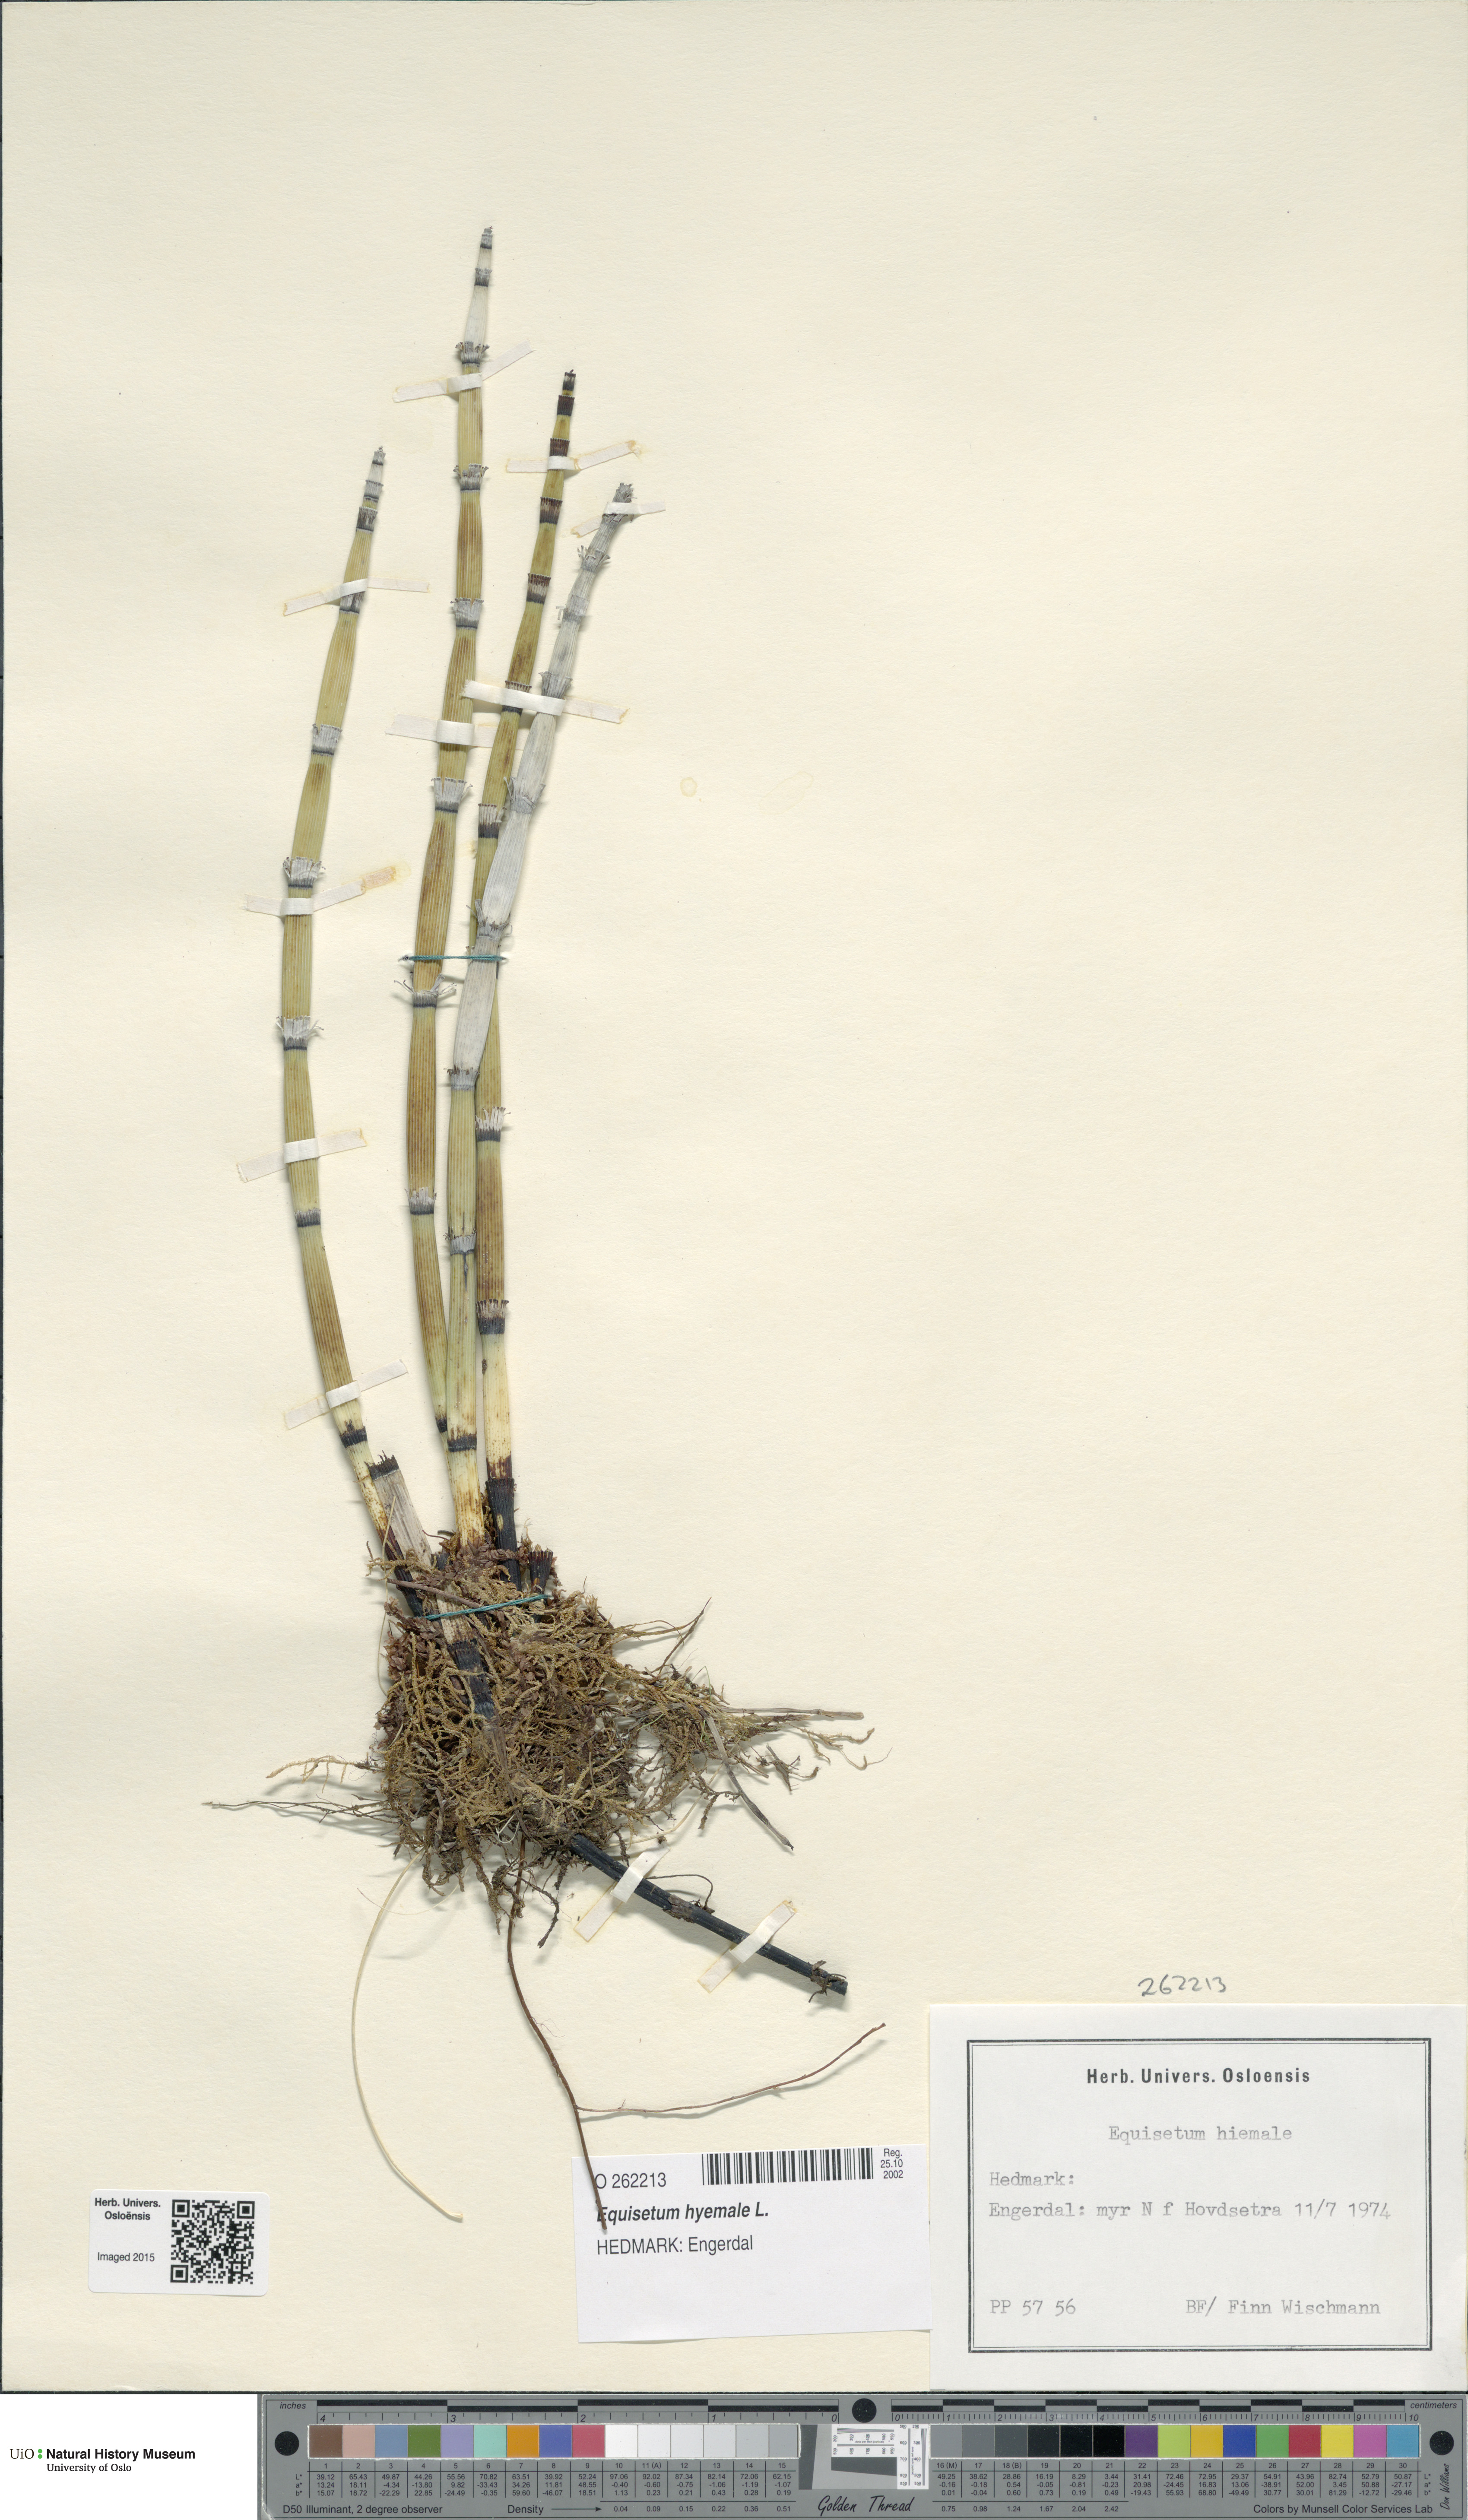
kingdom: Plantae
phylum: Tracheophyta
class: Polypodiopsida
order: Equisetales
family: Equisetaceae
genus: Equisetum
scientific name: Equisetum hyemale
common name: Rough horsetail
